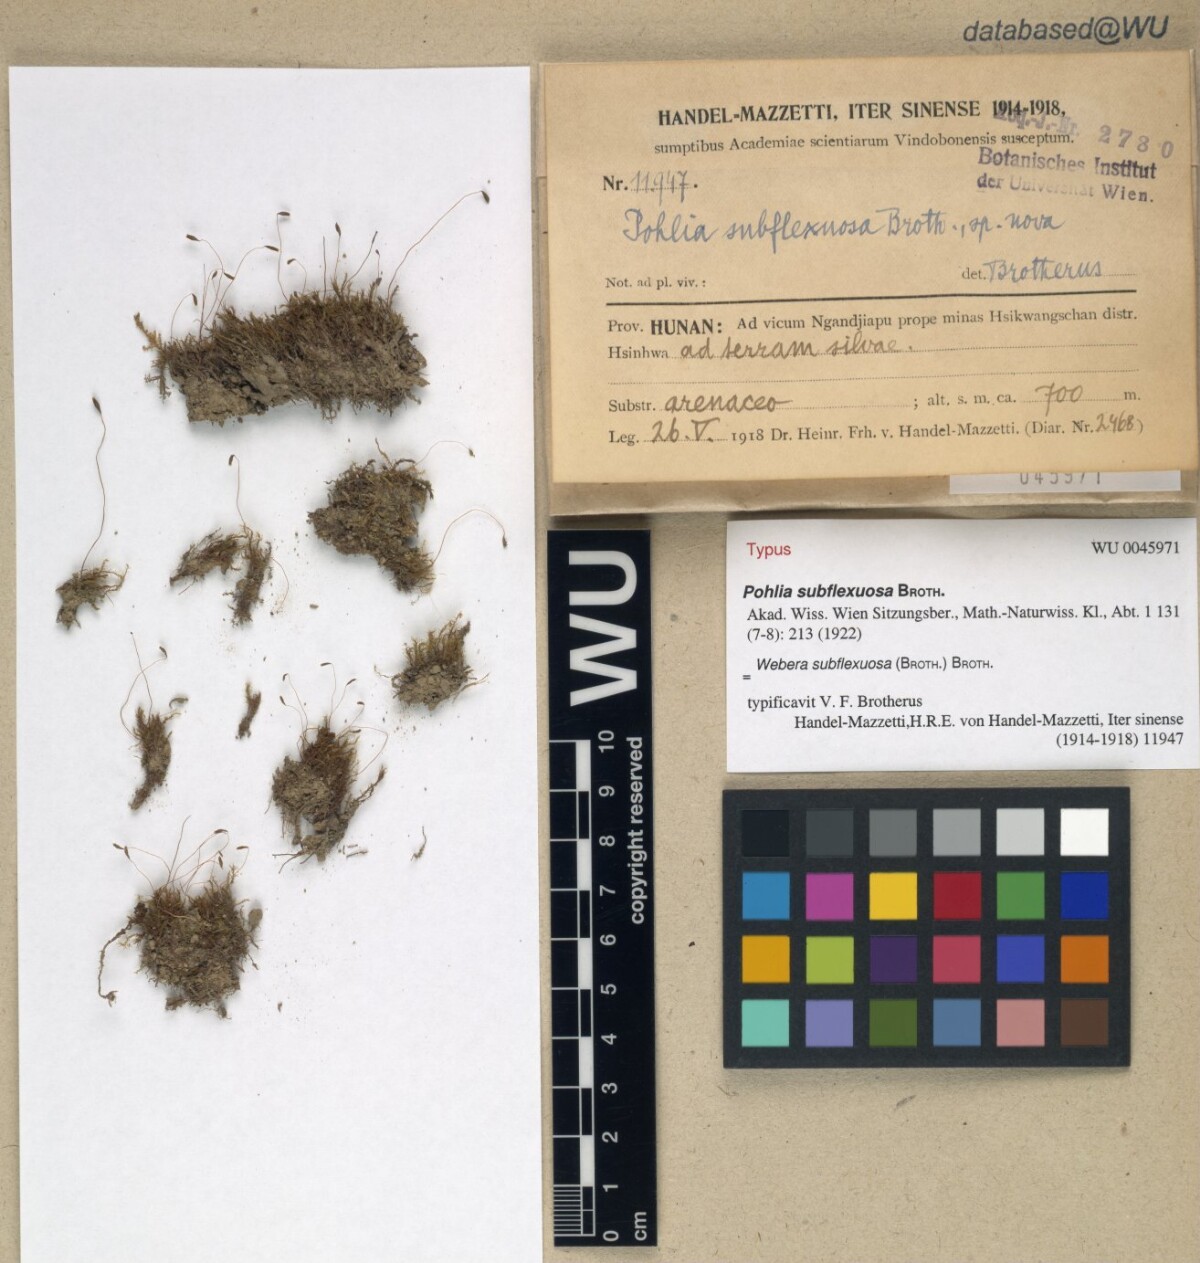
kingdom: Plantae
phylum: Bryophyta
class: Bryopsida
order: Bryales
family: Mniaceae
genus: Pohlia
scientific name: Pohlia flexuosa
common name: Orange-bud thread-moss
